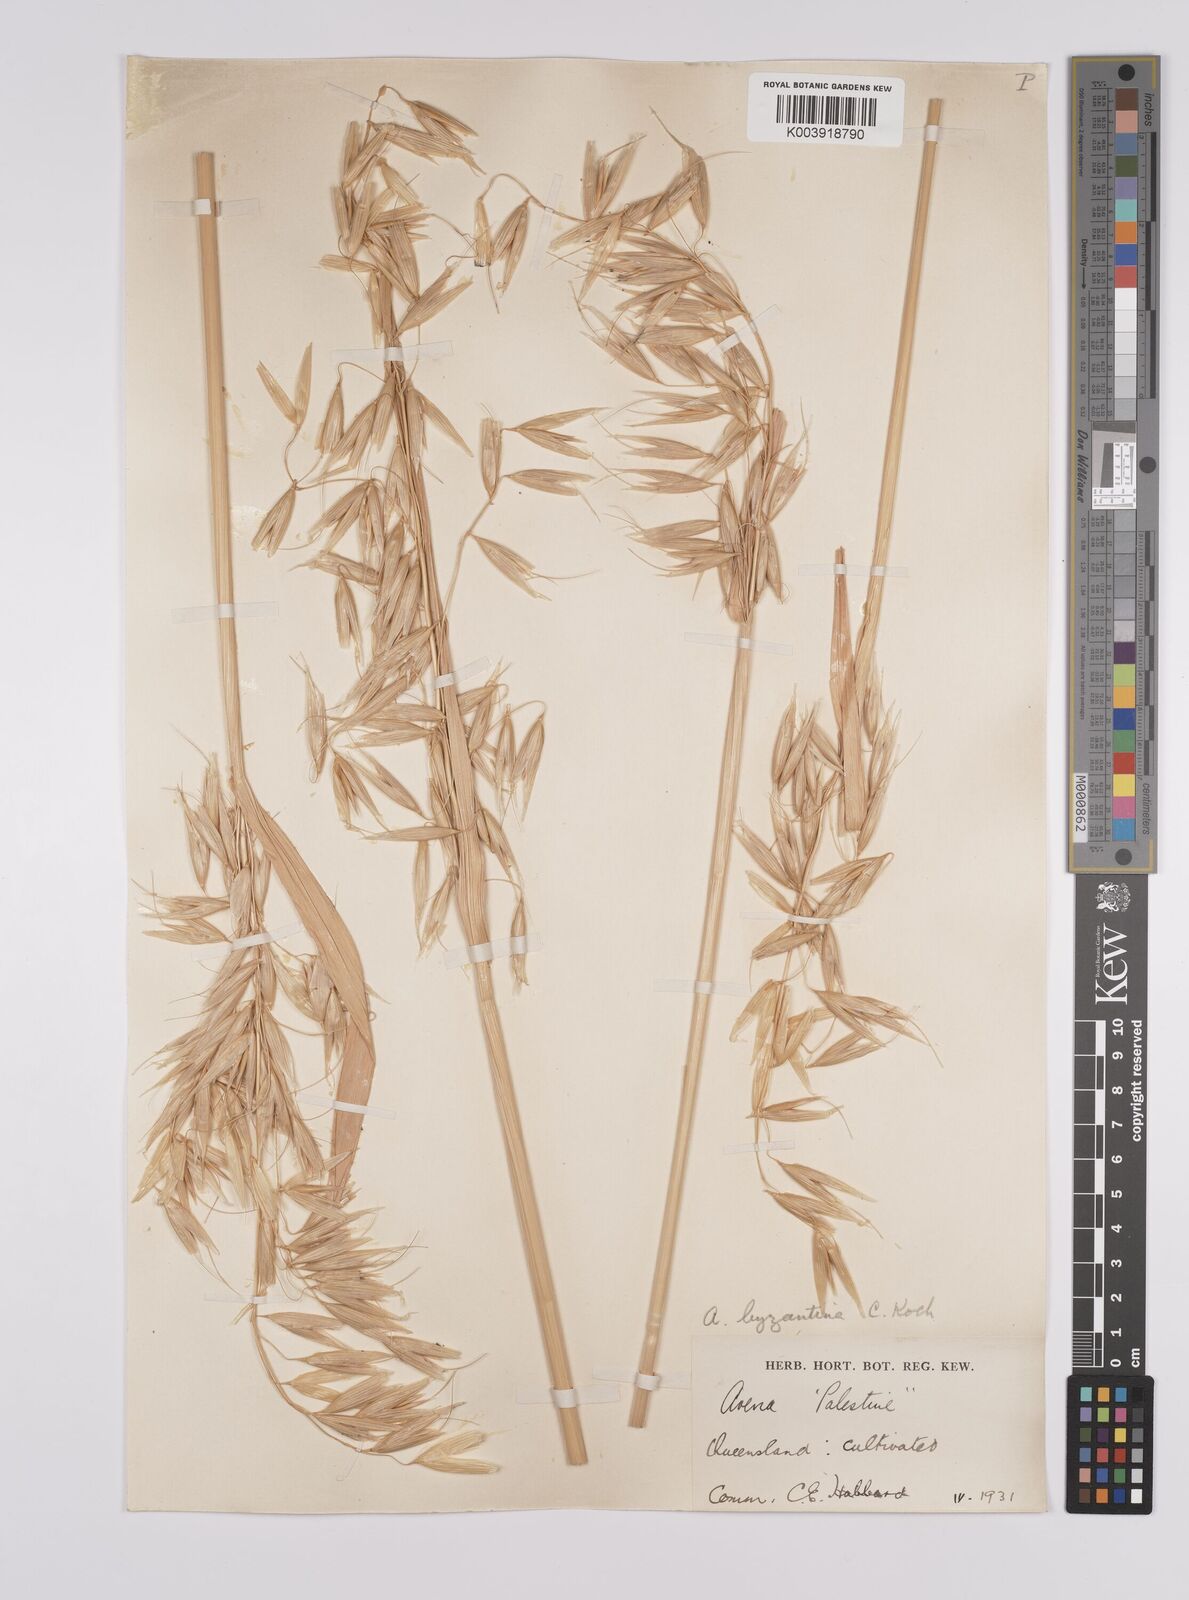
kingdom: Plantae
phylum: Tracheophyta
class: Liliopsida
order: Poales
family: Poaceae
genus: Avena
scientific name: Avena byzantina
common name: Algerian oat
